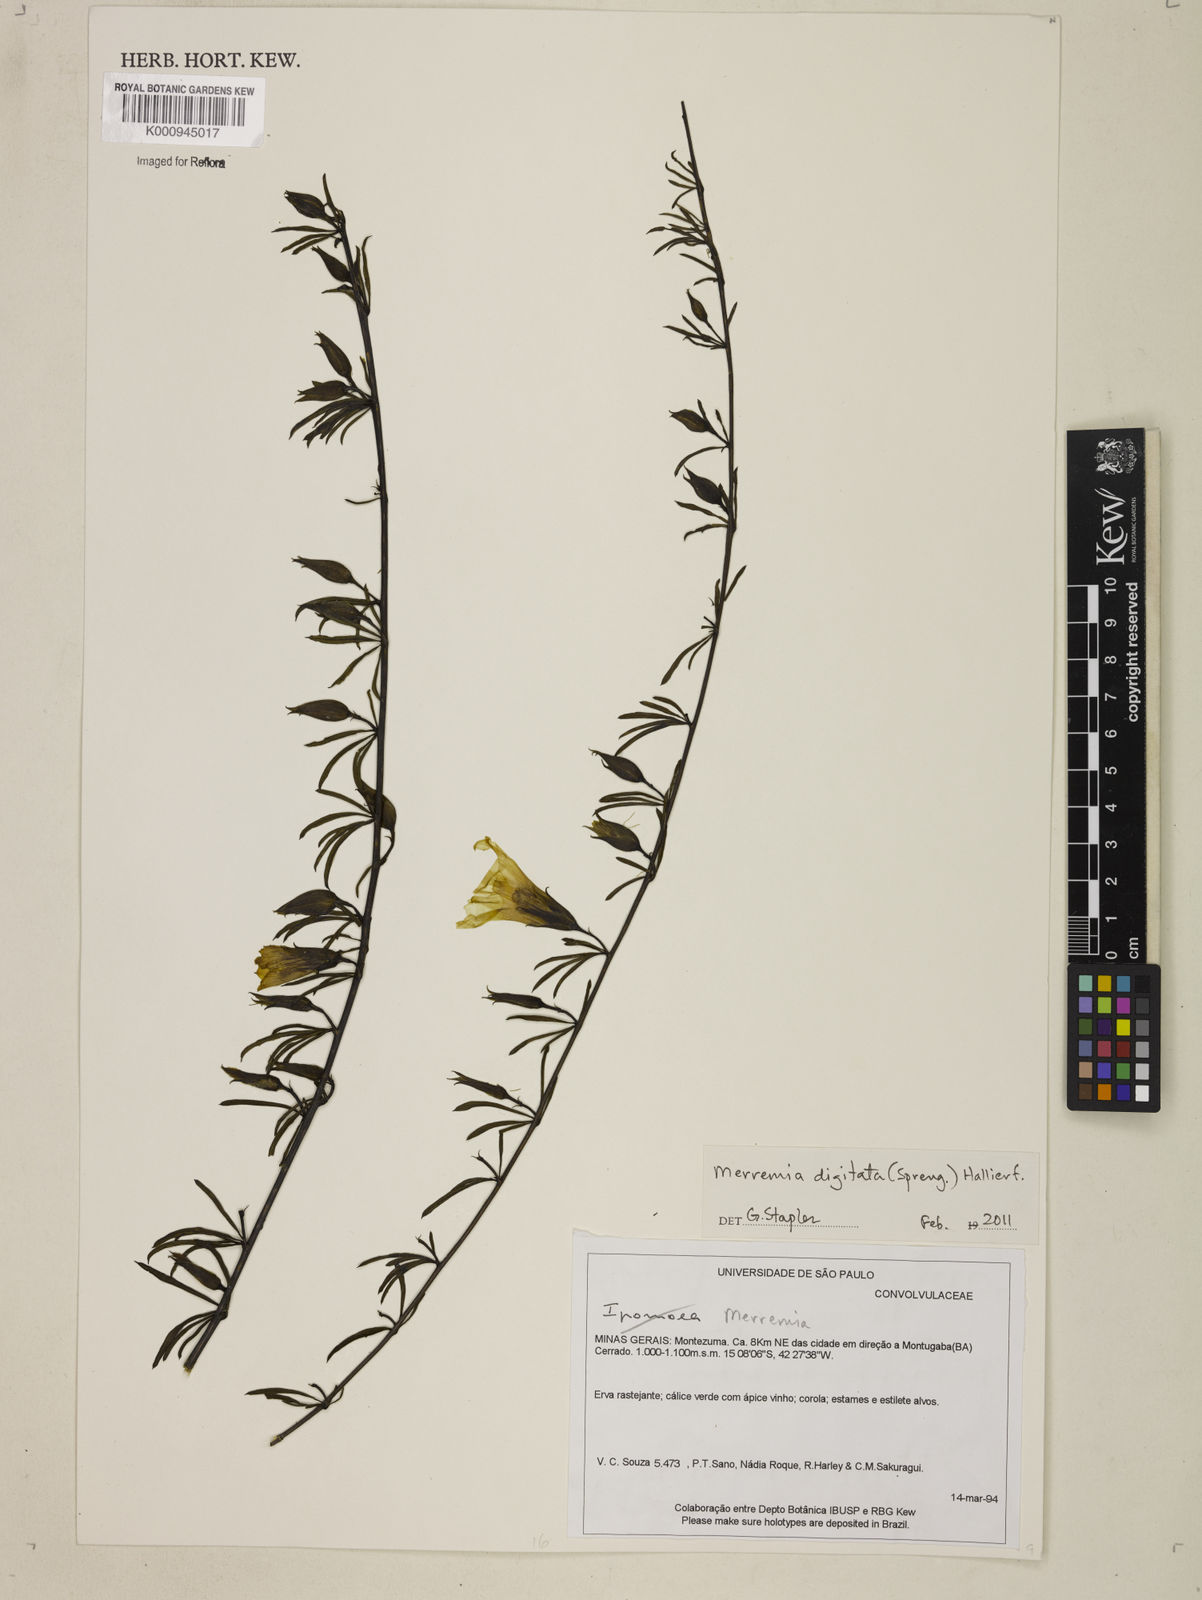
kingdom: Plantae
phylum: Tracheophyta
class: Magnoliopsida
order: Solanales
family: Convolvulaceae
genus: Distimake
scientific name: Distimake digitatus
